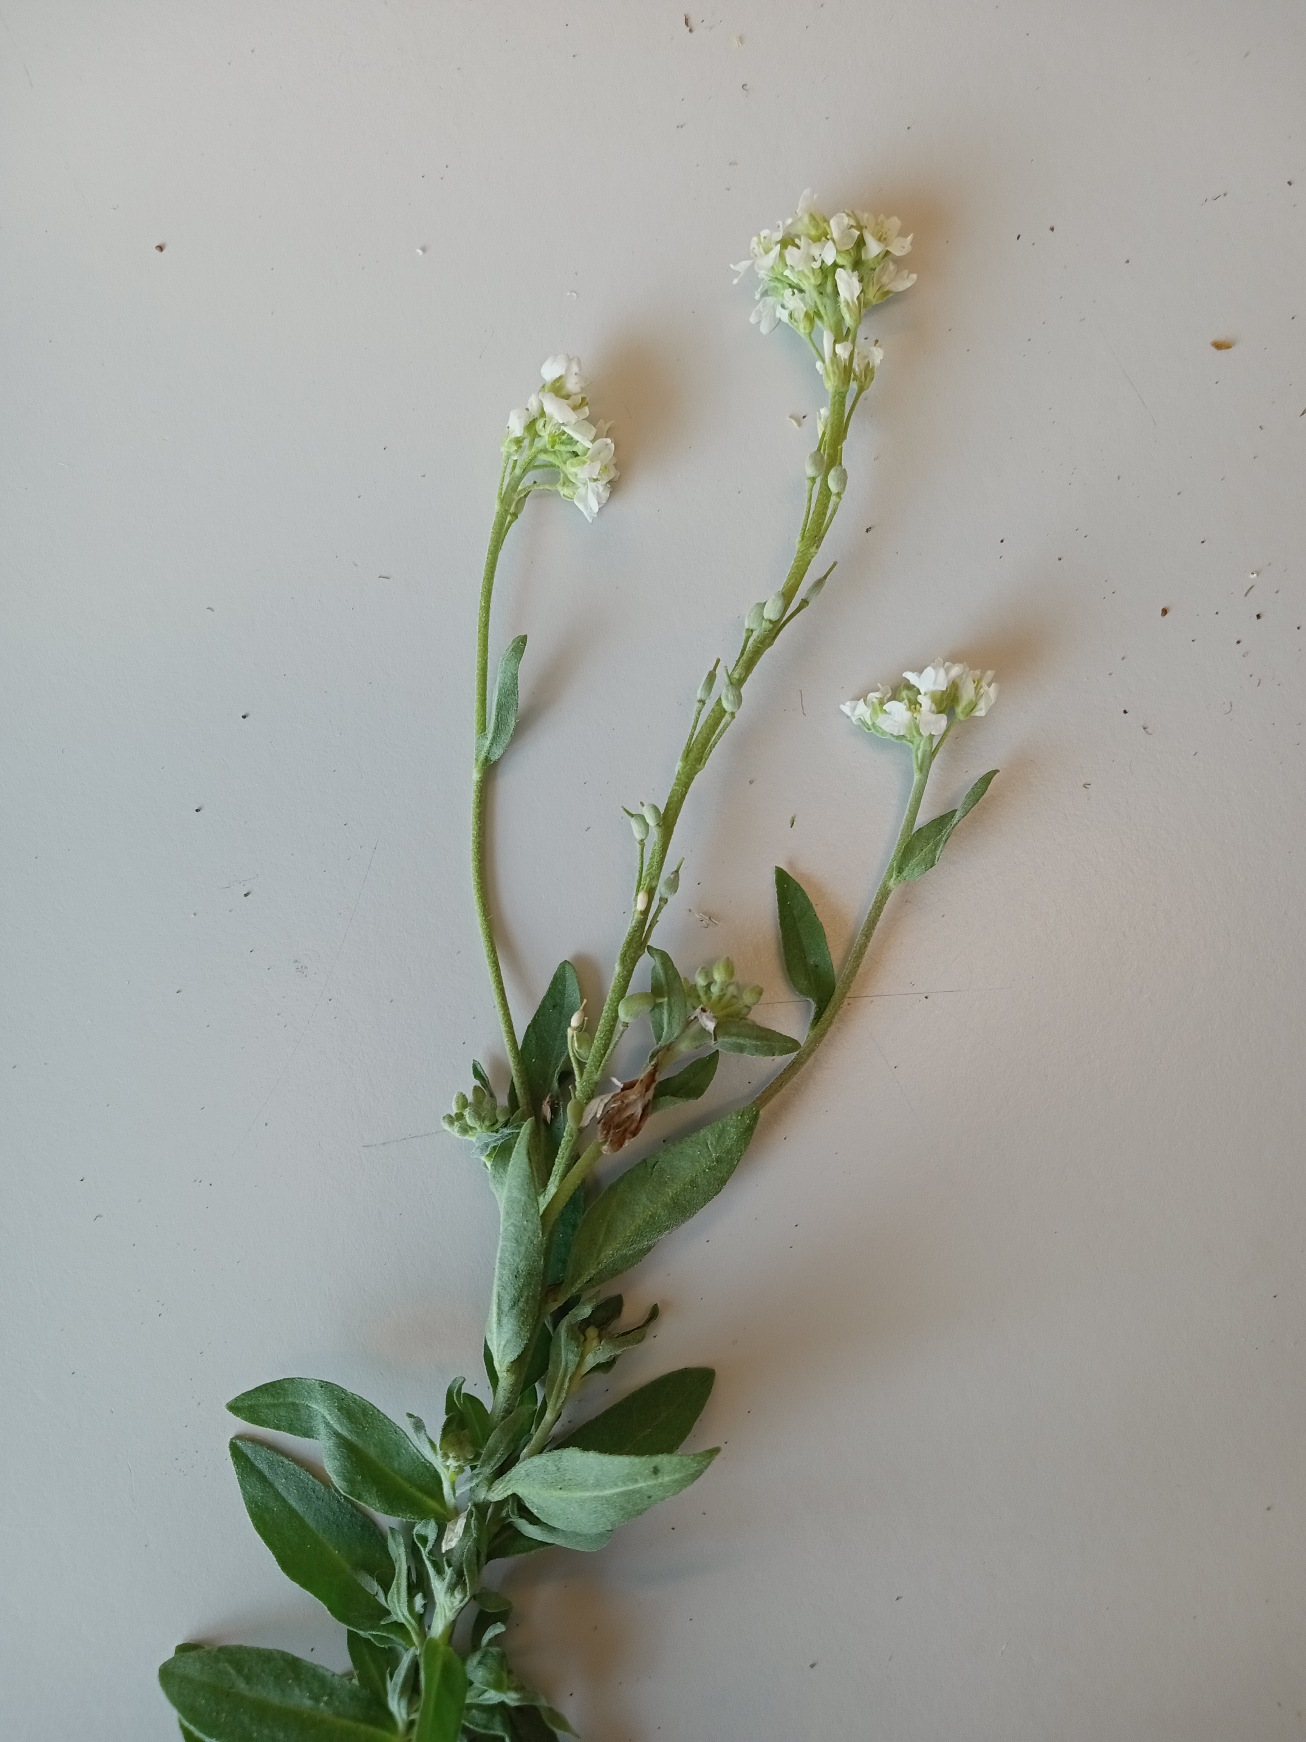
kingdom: Plantae
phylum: Tracheophyta
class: Magnoliopsida
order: Brassicales
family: Brassicaceae
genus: Berteroa
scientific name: Berteroa incana
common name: Kløvplade
